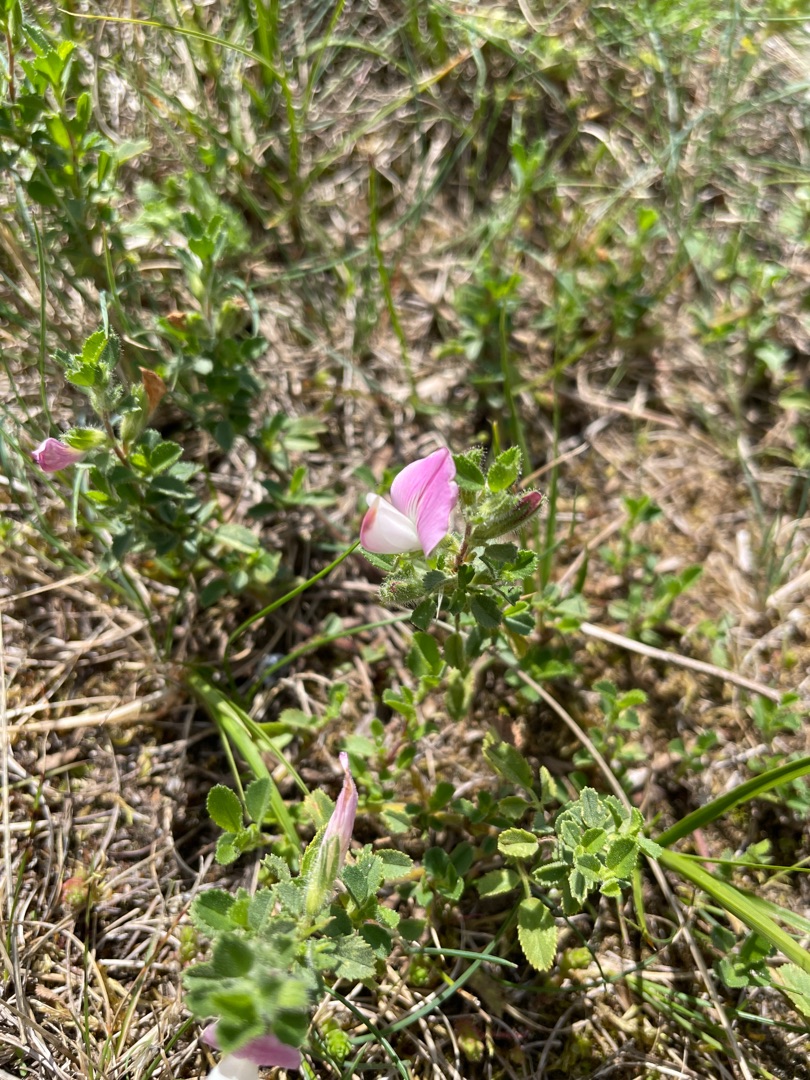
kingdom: Plantae
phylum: Tracheophyta
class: Magnoliopsida
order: Fabales
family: Fabaceae
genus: Ononis
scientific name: Ononis spinosa
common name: Mark-krageklo
